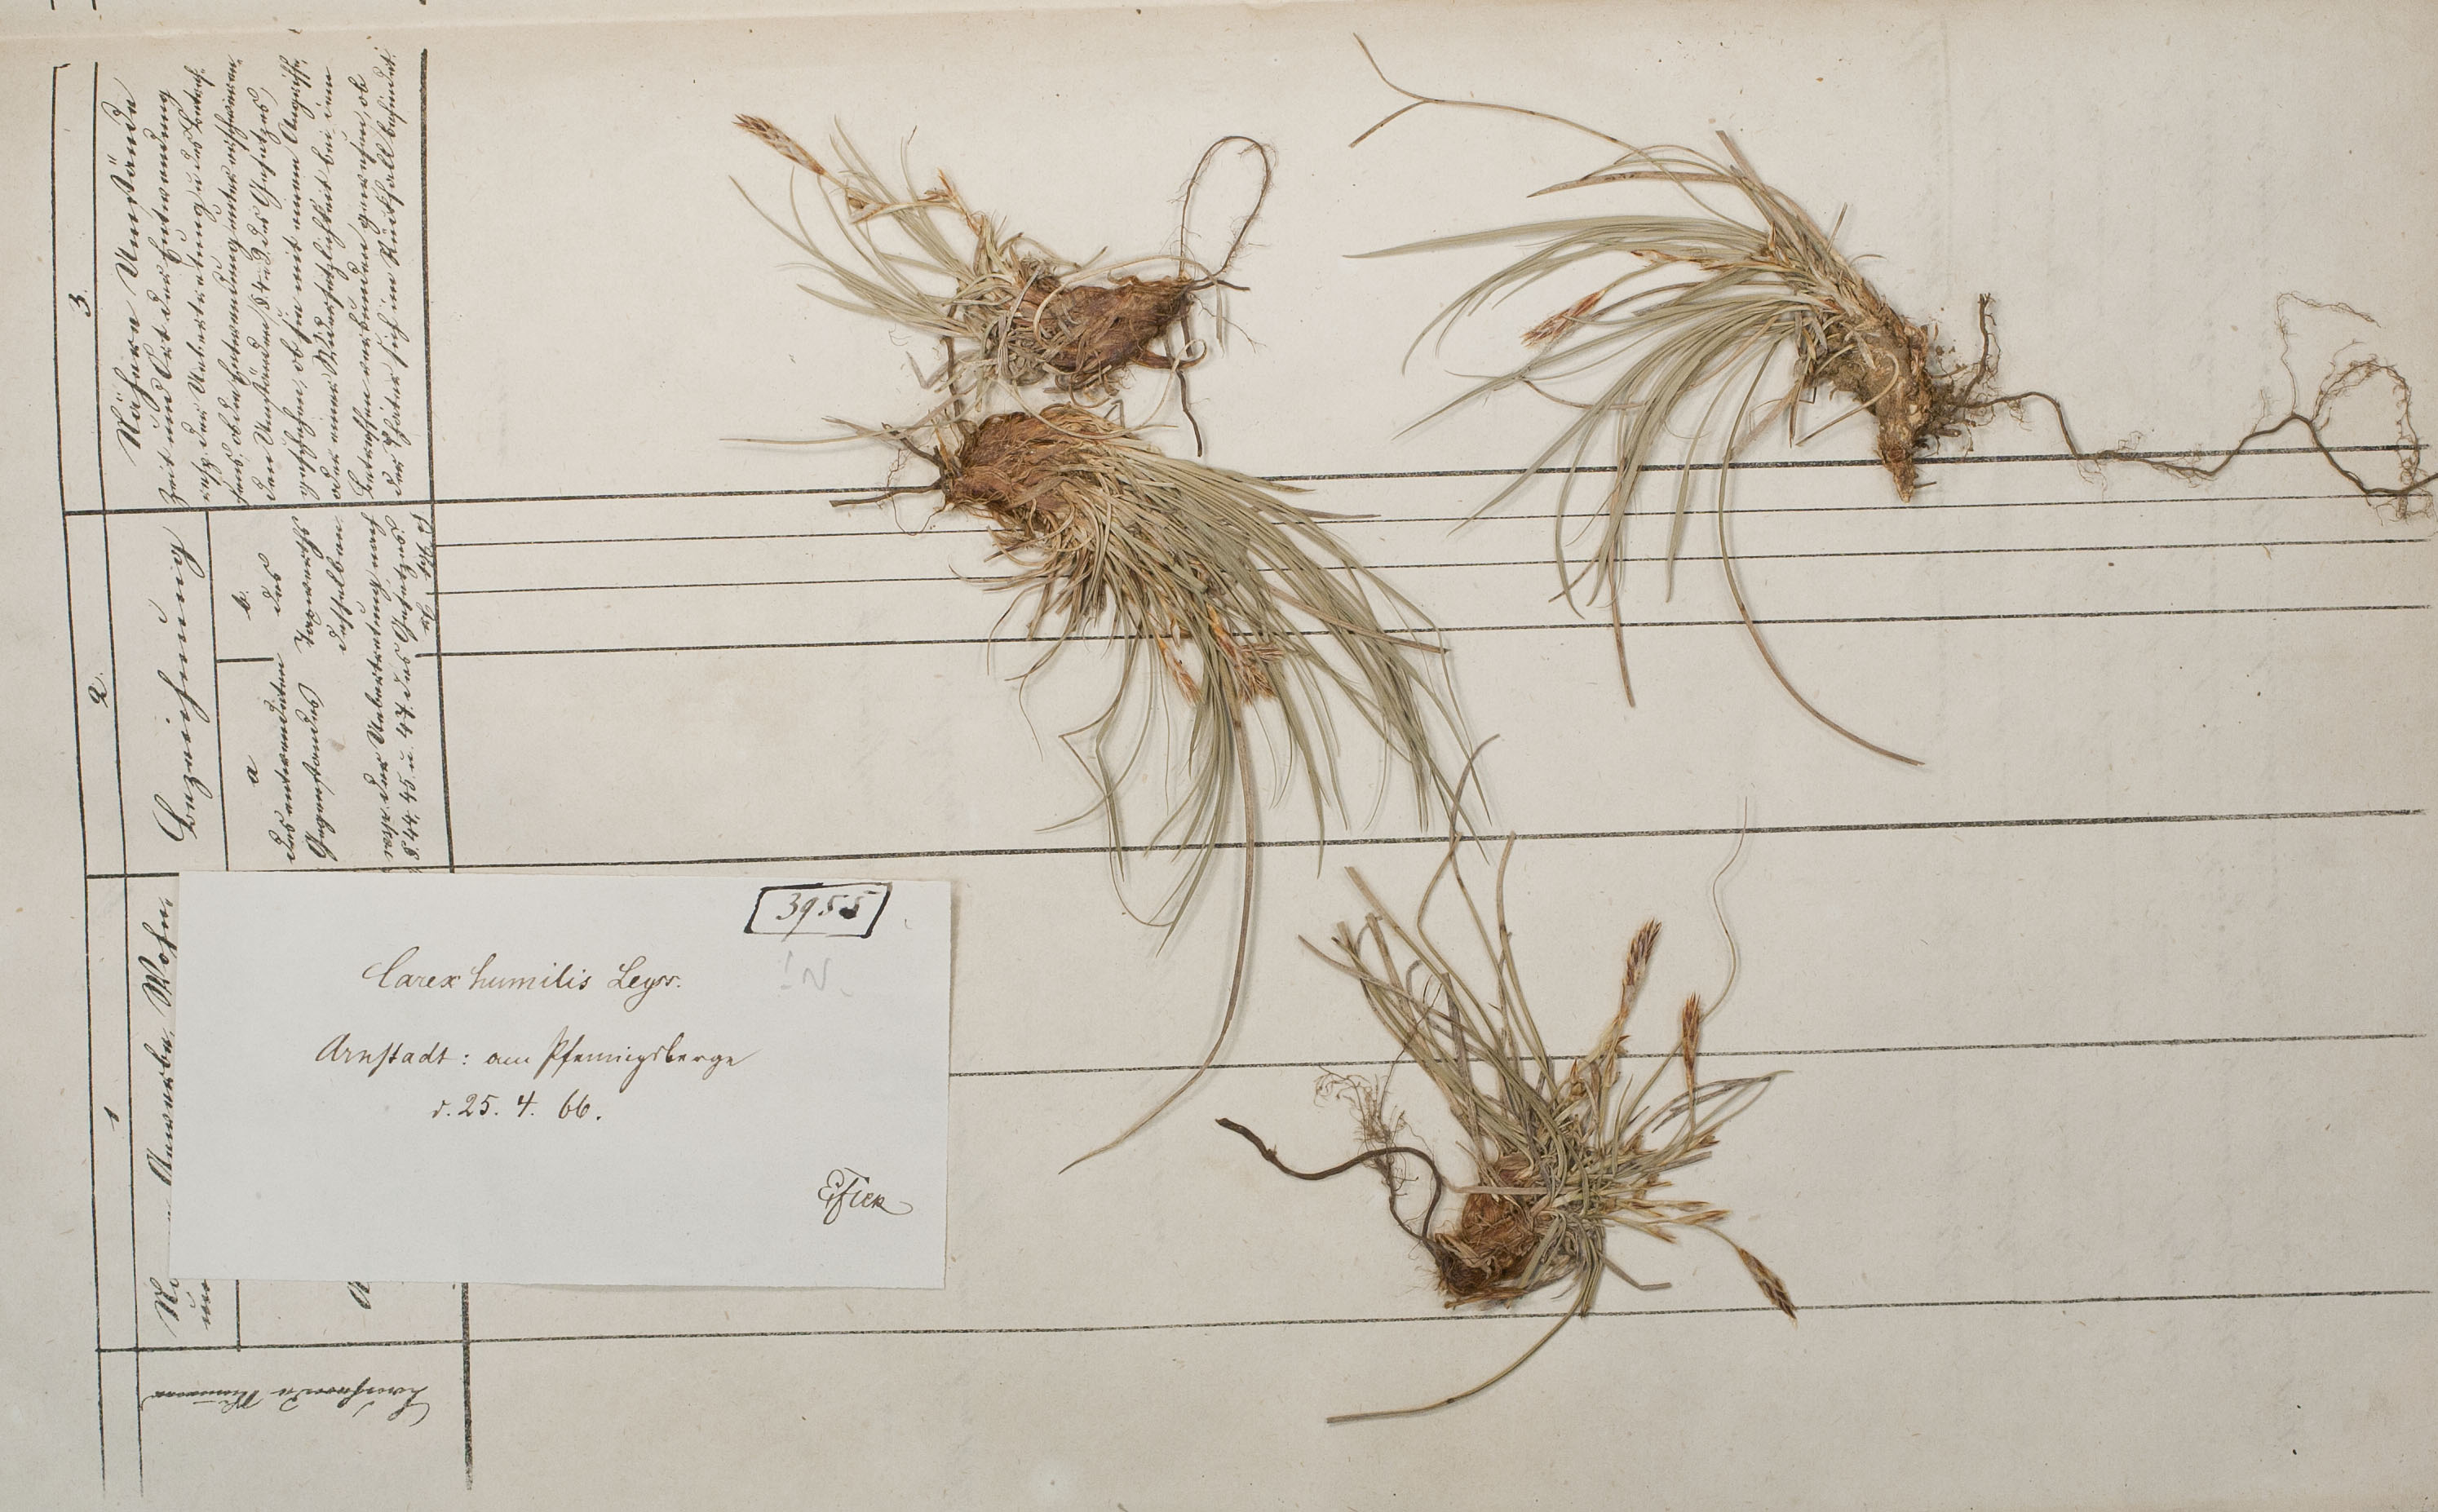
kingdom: Plantae
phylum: Tracheophyta
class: Liliopsida
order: Poales
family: Cyperaceae
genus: Carex
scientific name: Carex humilis
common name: Dwarf sedge
